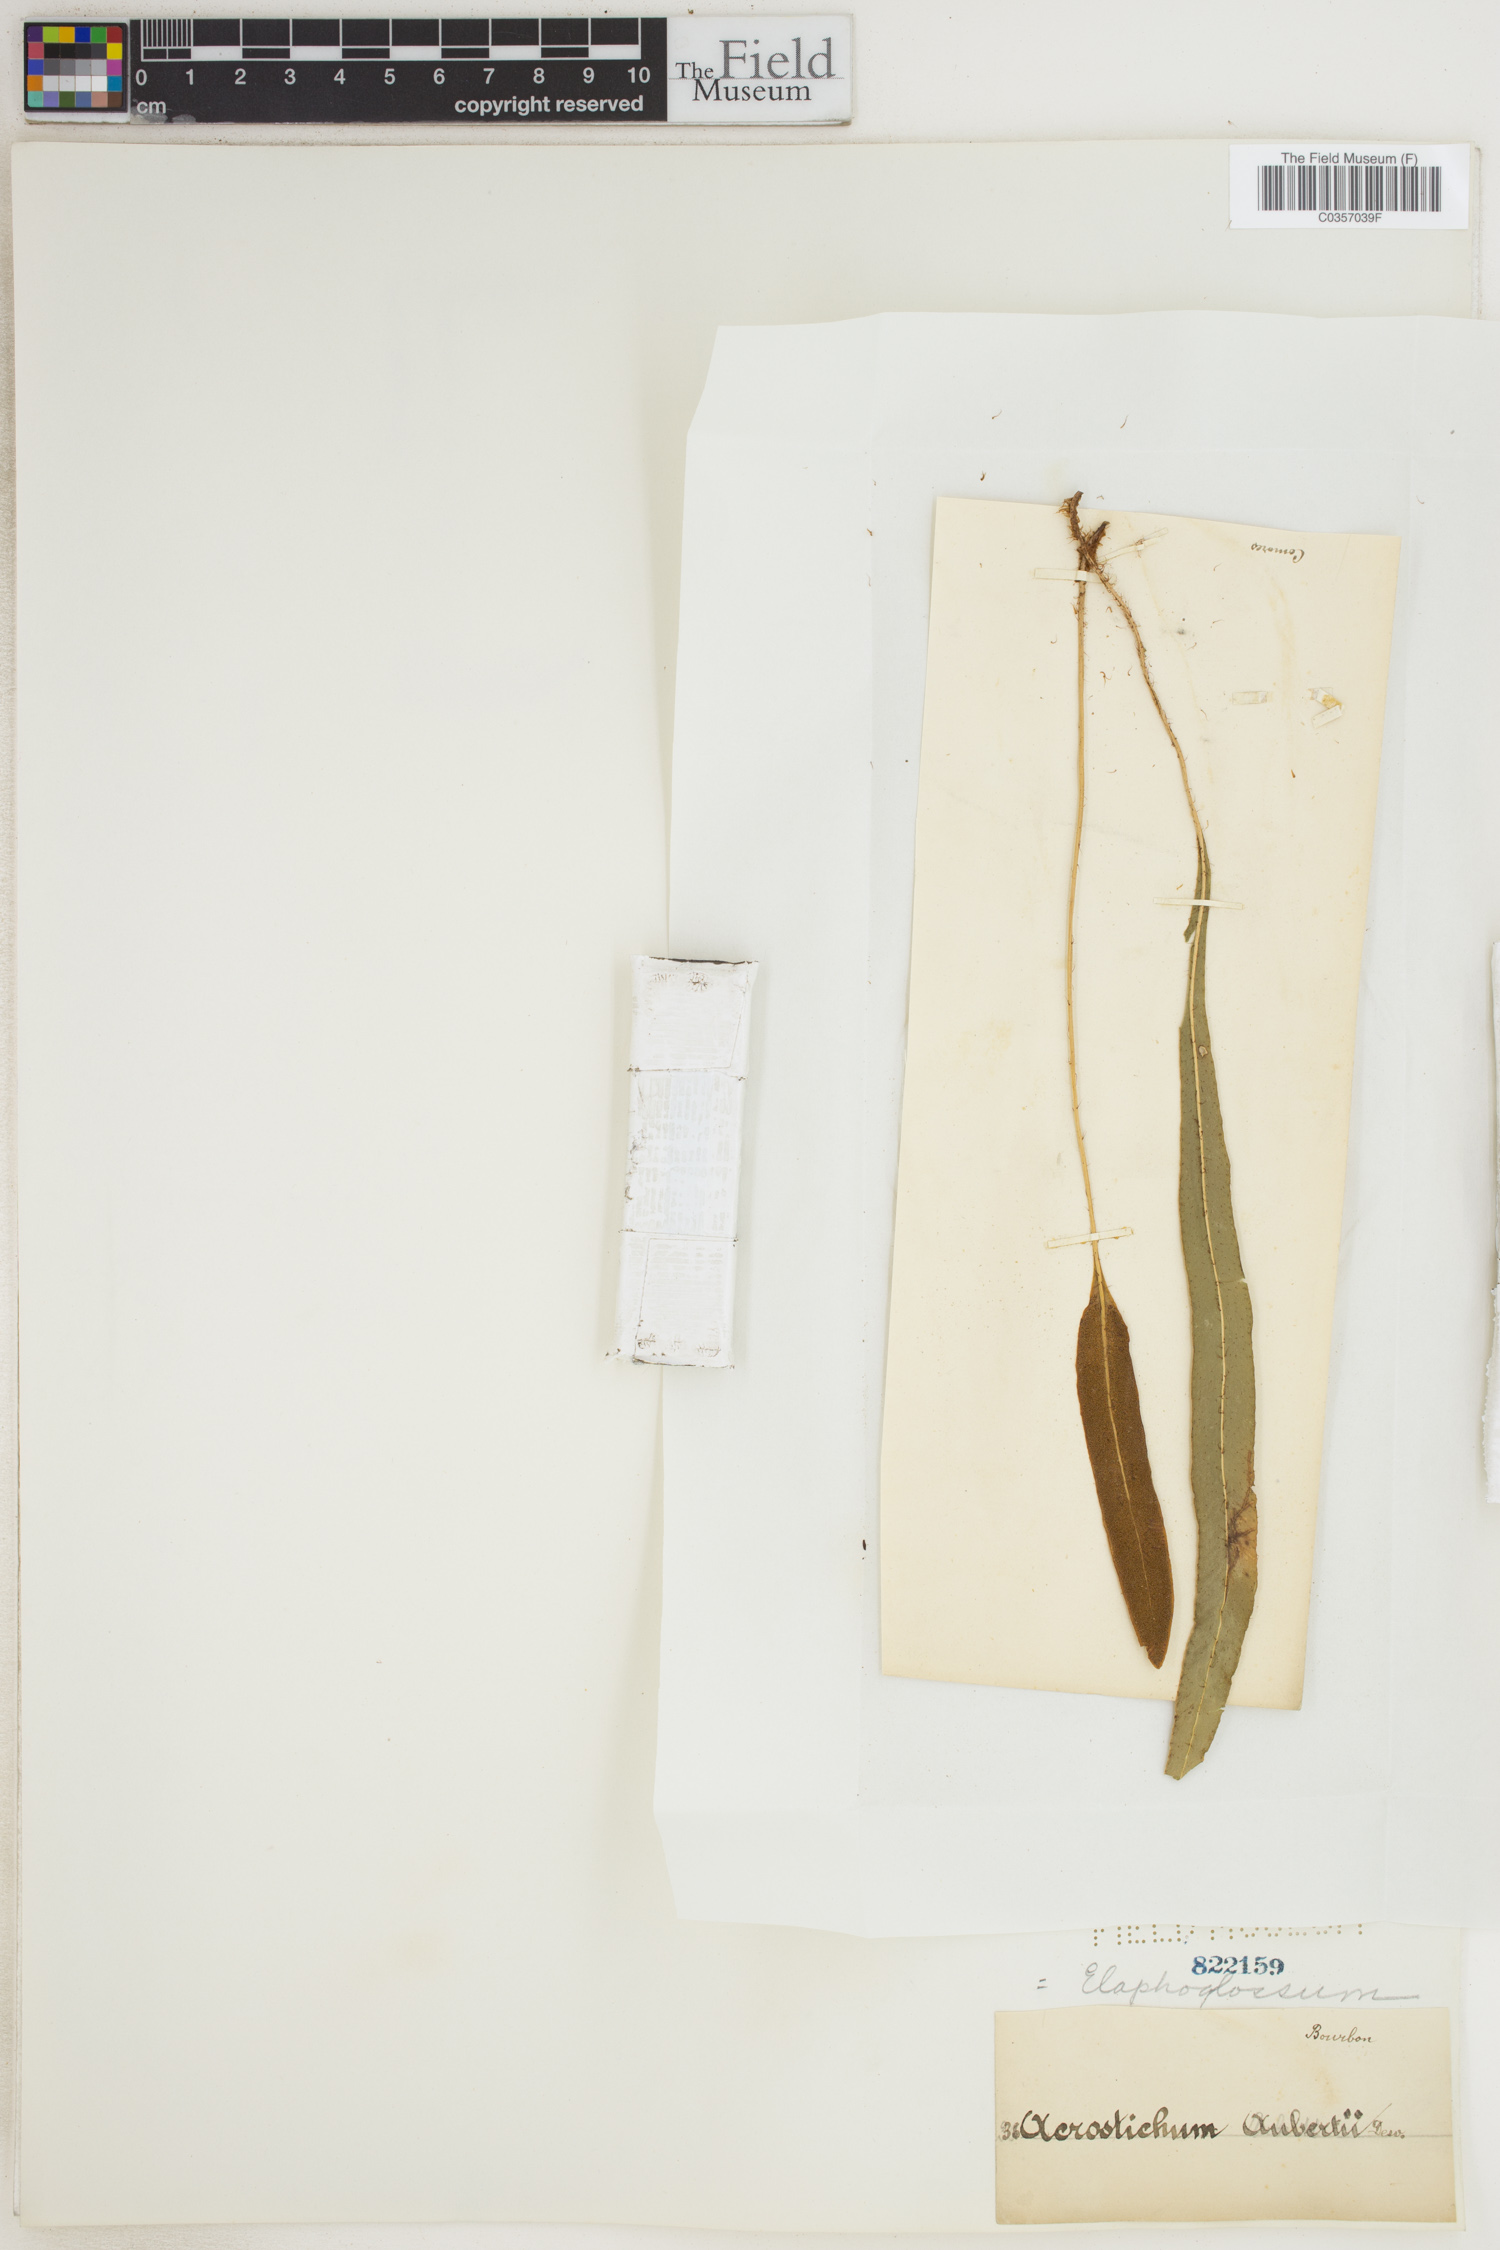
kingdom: Plantae
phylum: Tracheophyta
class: Polypodiopsida
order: Polypodiales
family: Dryopteridaceae
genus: Elaphoglossum
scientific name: Elaphoglossum
